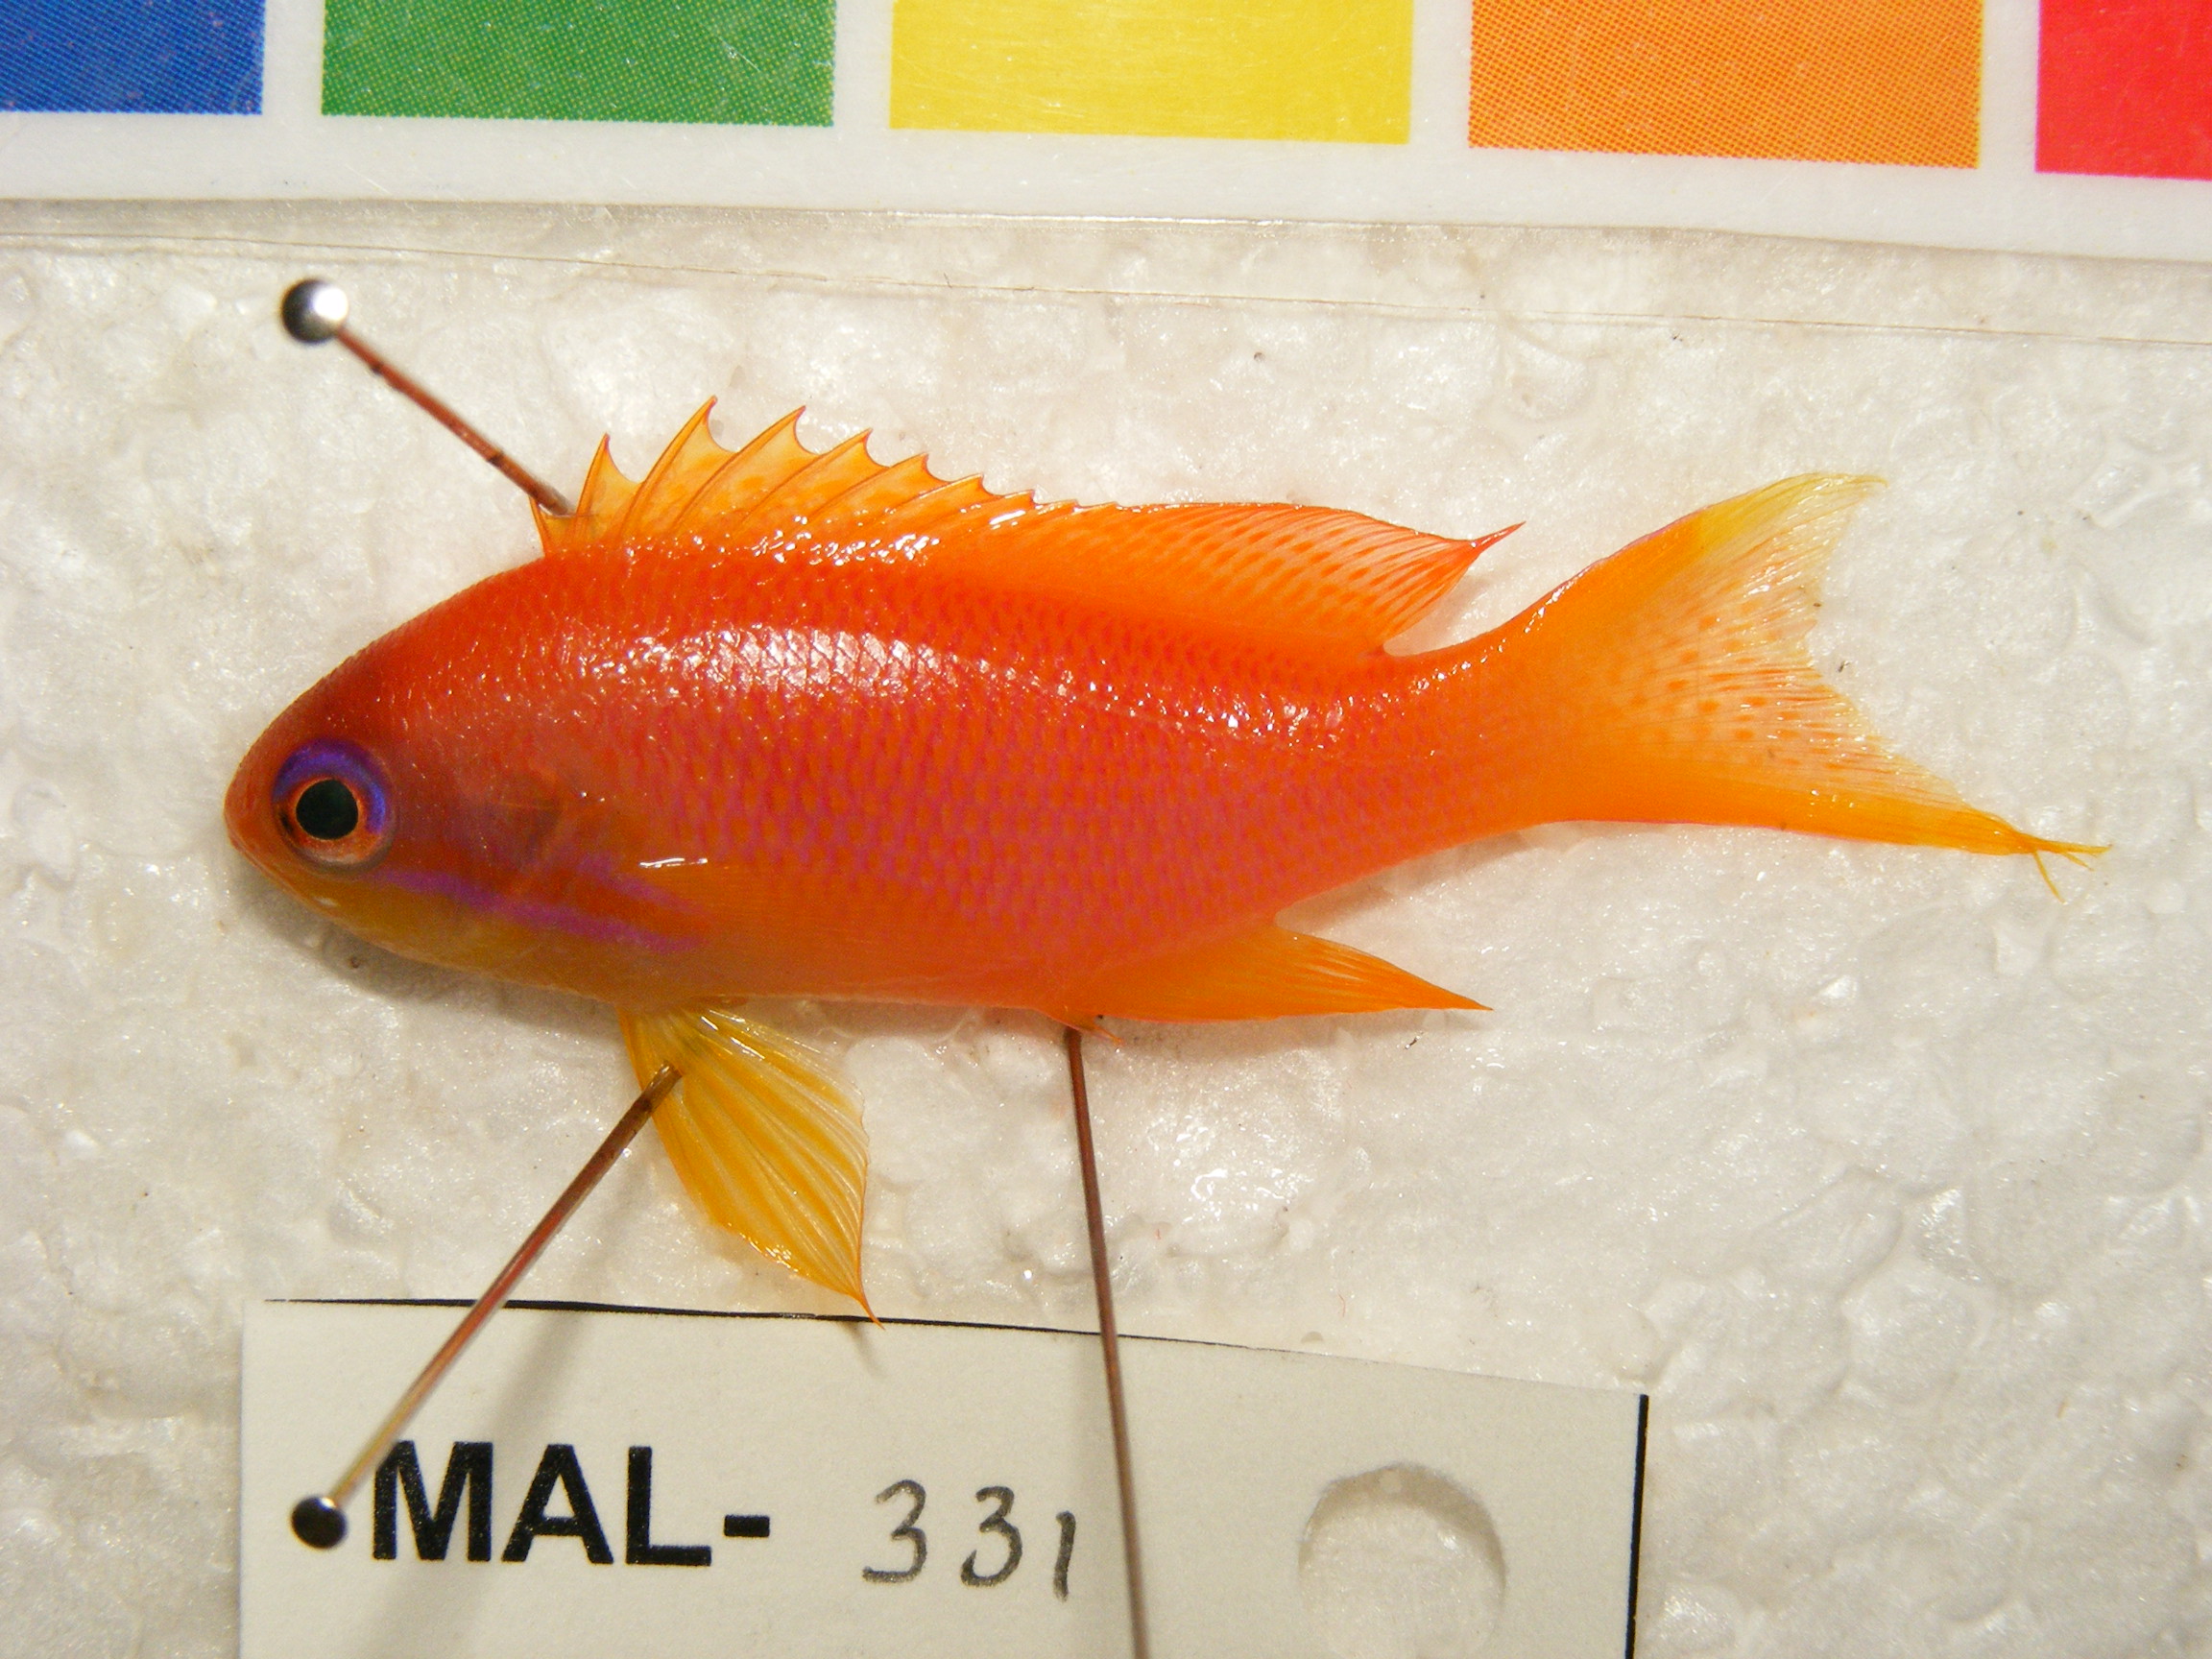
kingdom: Animalia
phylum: Chordata
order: Perciformes
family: Serranidae
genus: Pseudanthias
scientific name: Pseudanthias squamipinnis
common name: Scalefin anthias
